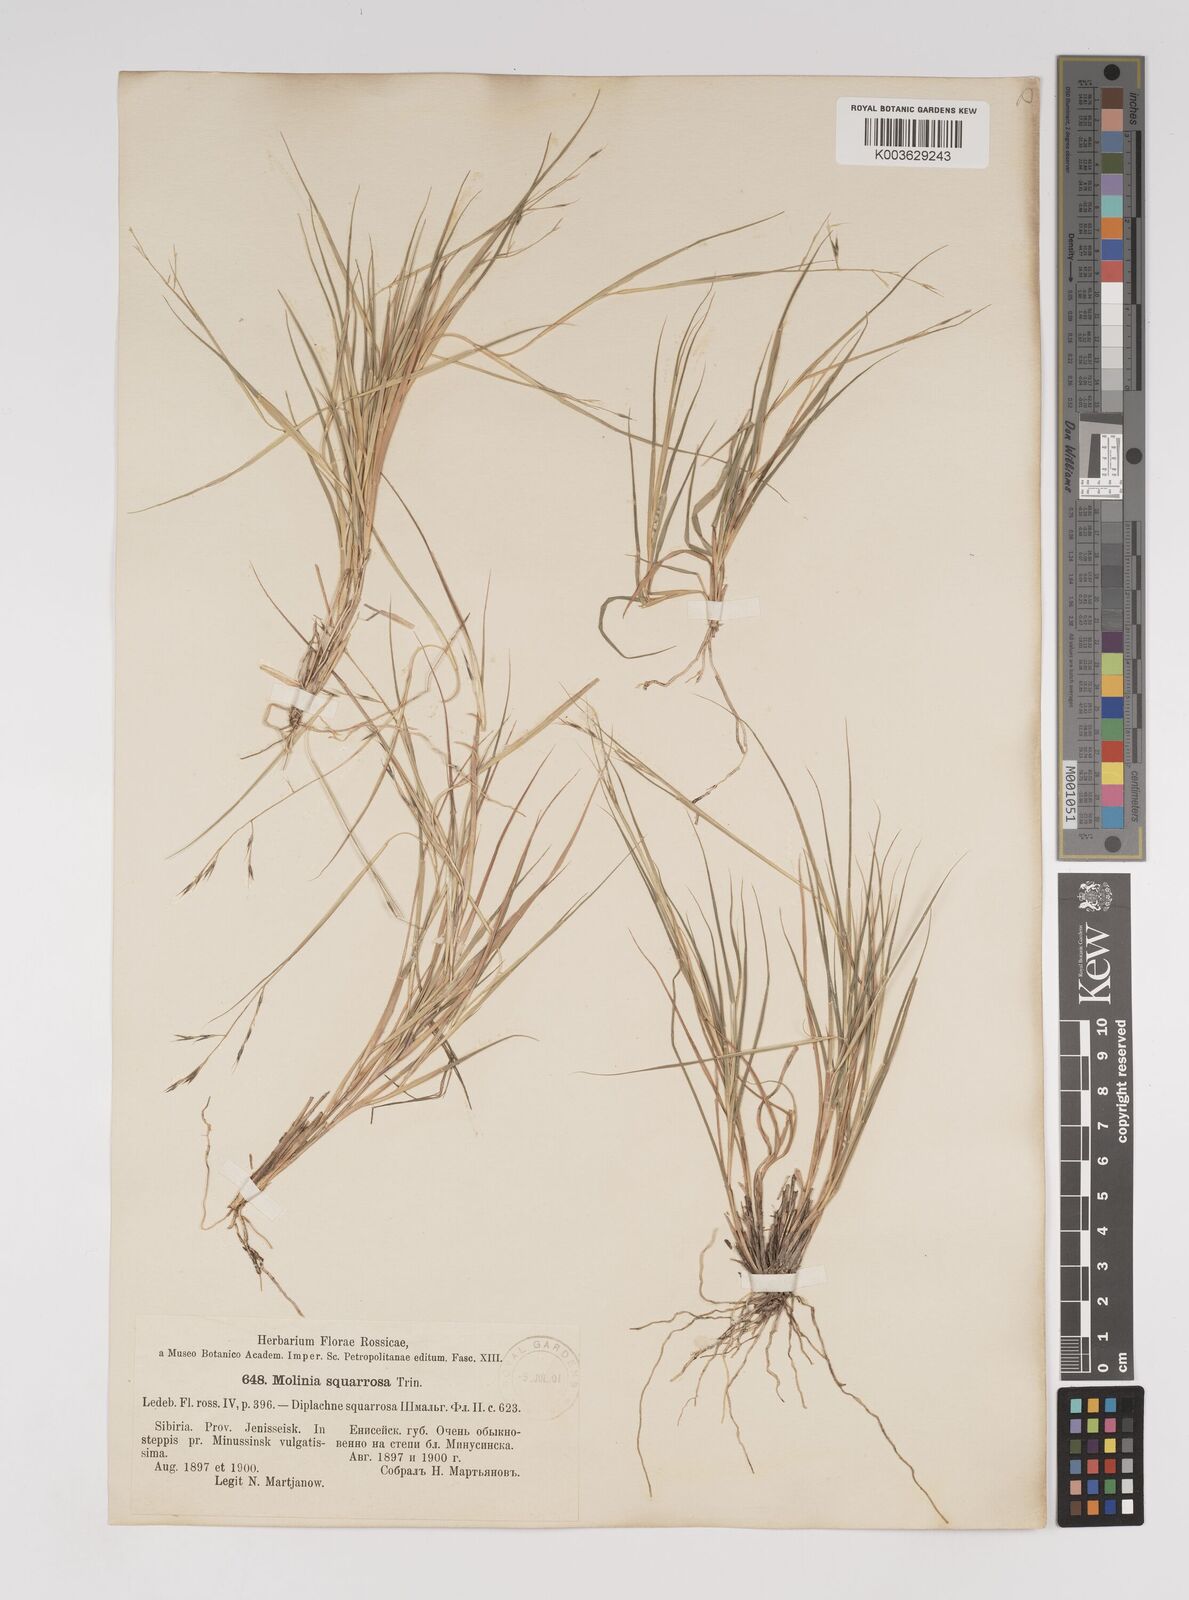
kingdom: Plantae
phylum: Tracheophyta
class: Liliopsida
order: Poales
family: Poaceae
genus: Cleistogenes
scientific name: Cleistogenes squarrosa
